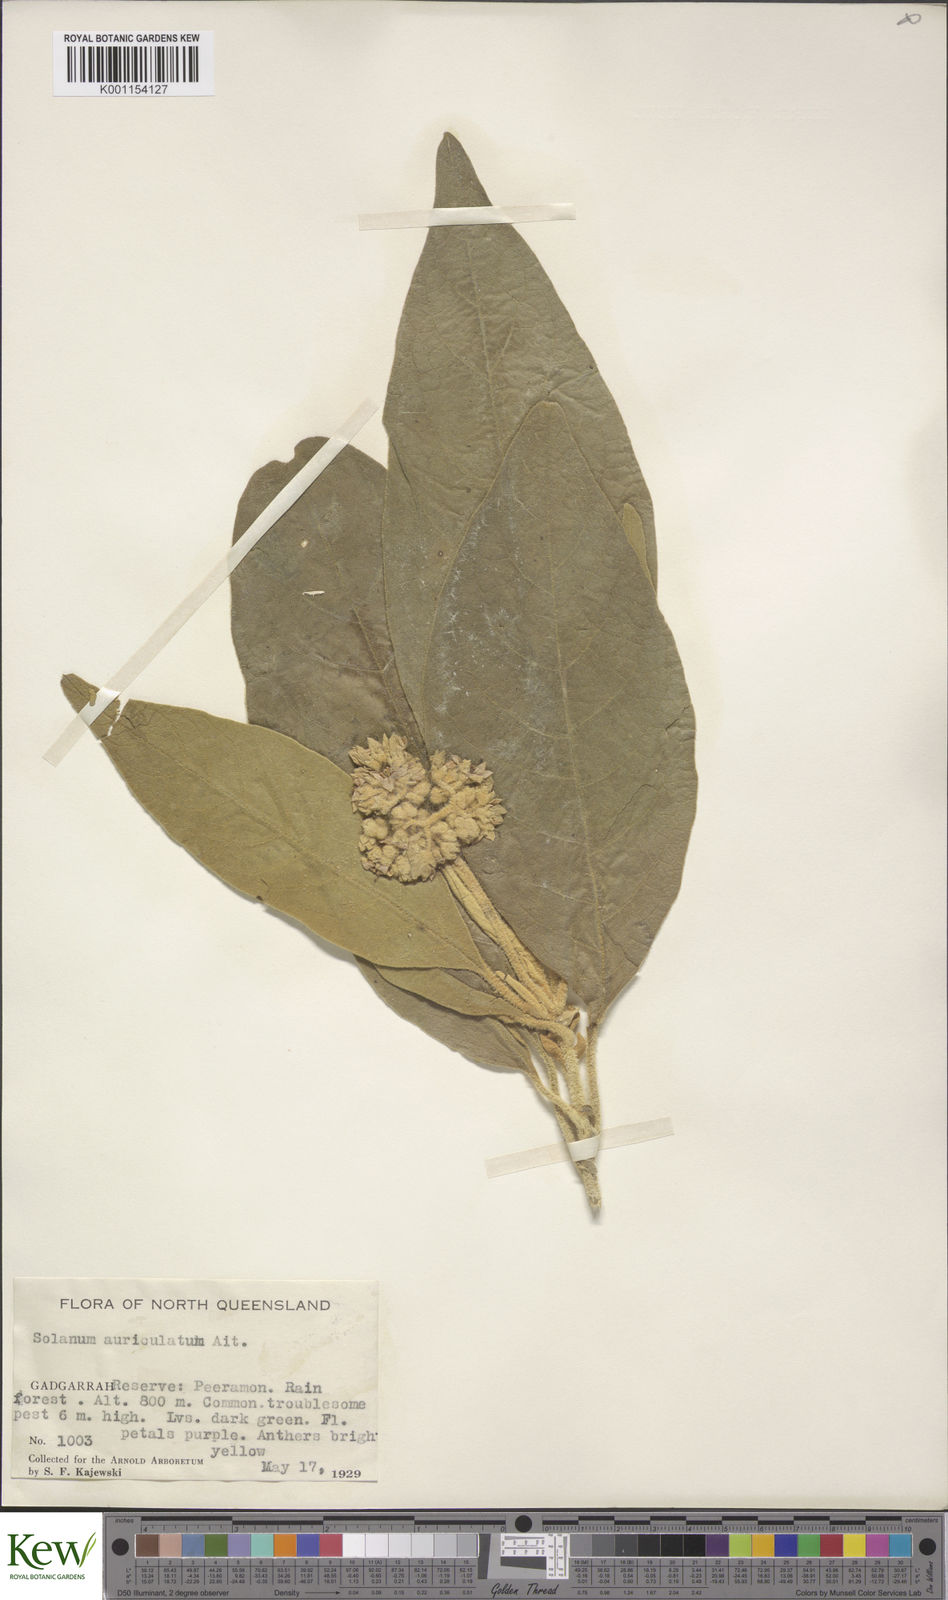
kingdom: Plantae
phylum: Tracheophyta
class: Magnoliopsida
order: Solanales
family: Solanaceae
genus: Solanum
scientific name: Solanum mauritianum
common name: Earleaf nightshade
